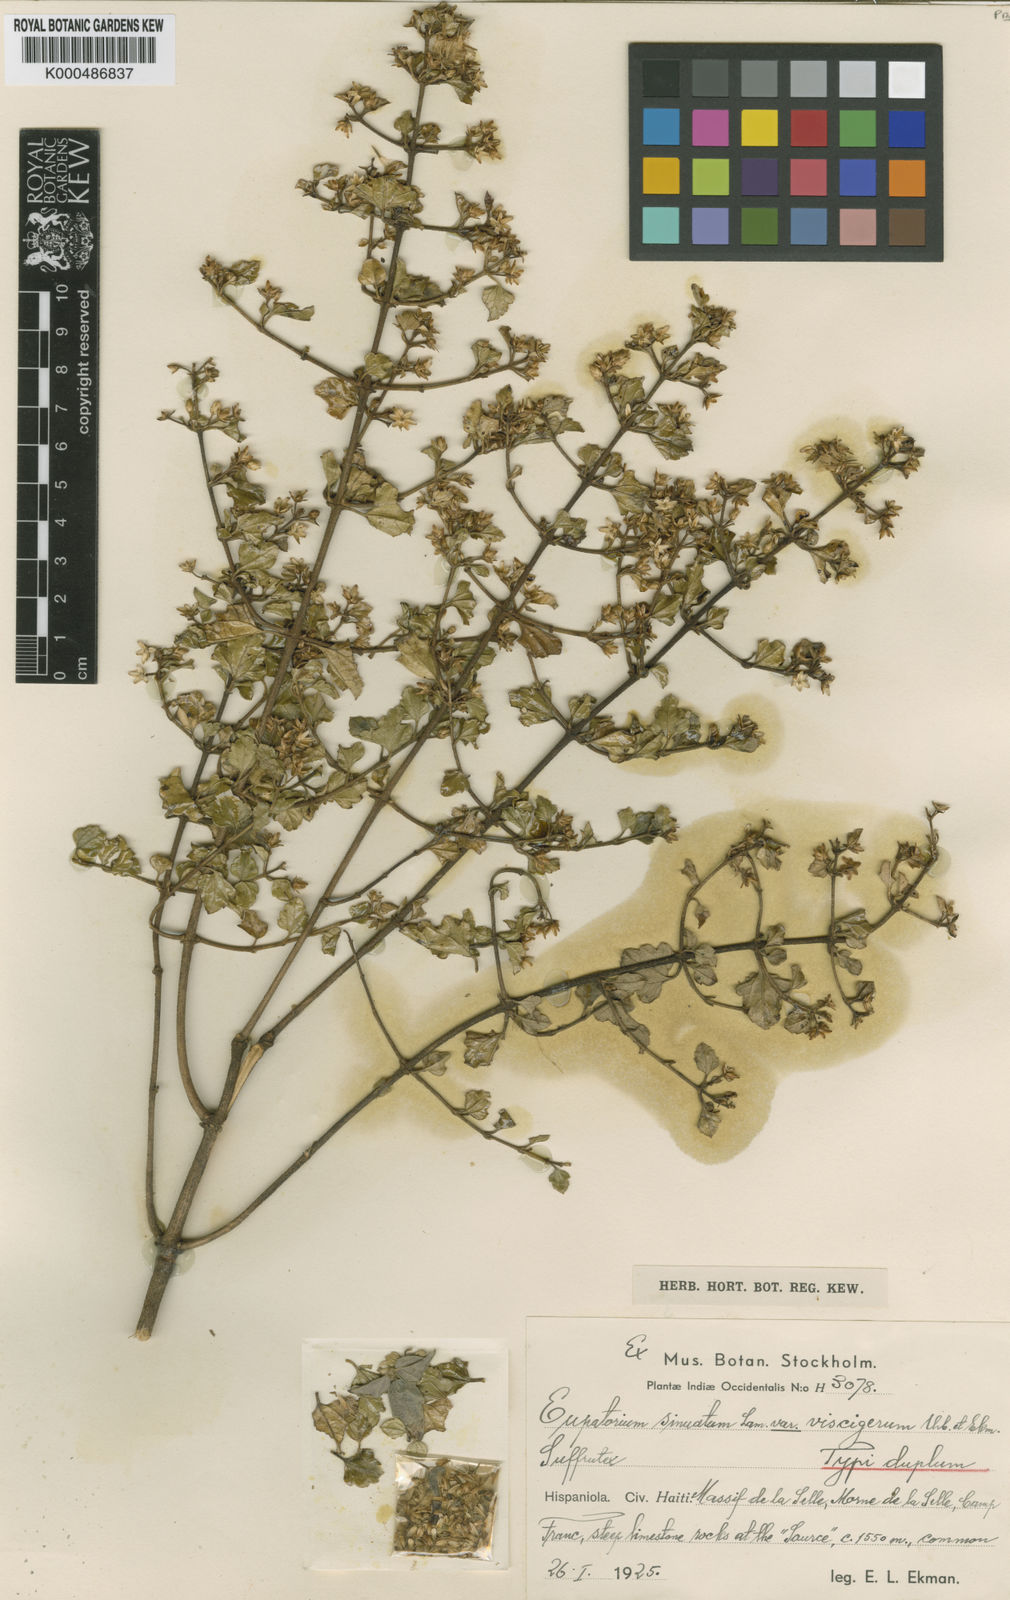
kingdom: Plantae
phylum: Tracheophyta
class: Magnoliopsida
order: Asterales
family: Asteraceae
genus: Chromolaena
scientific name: Chromolaena sinuata
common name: Wavyleaf thoroughwort
